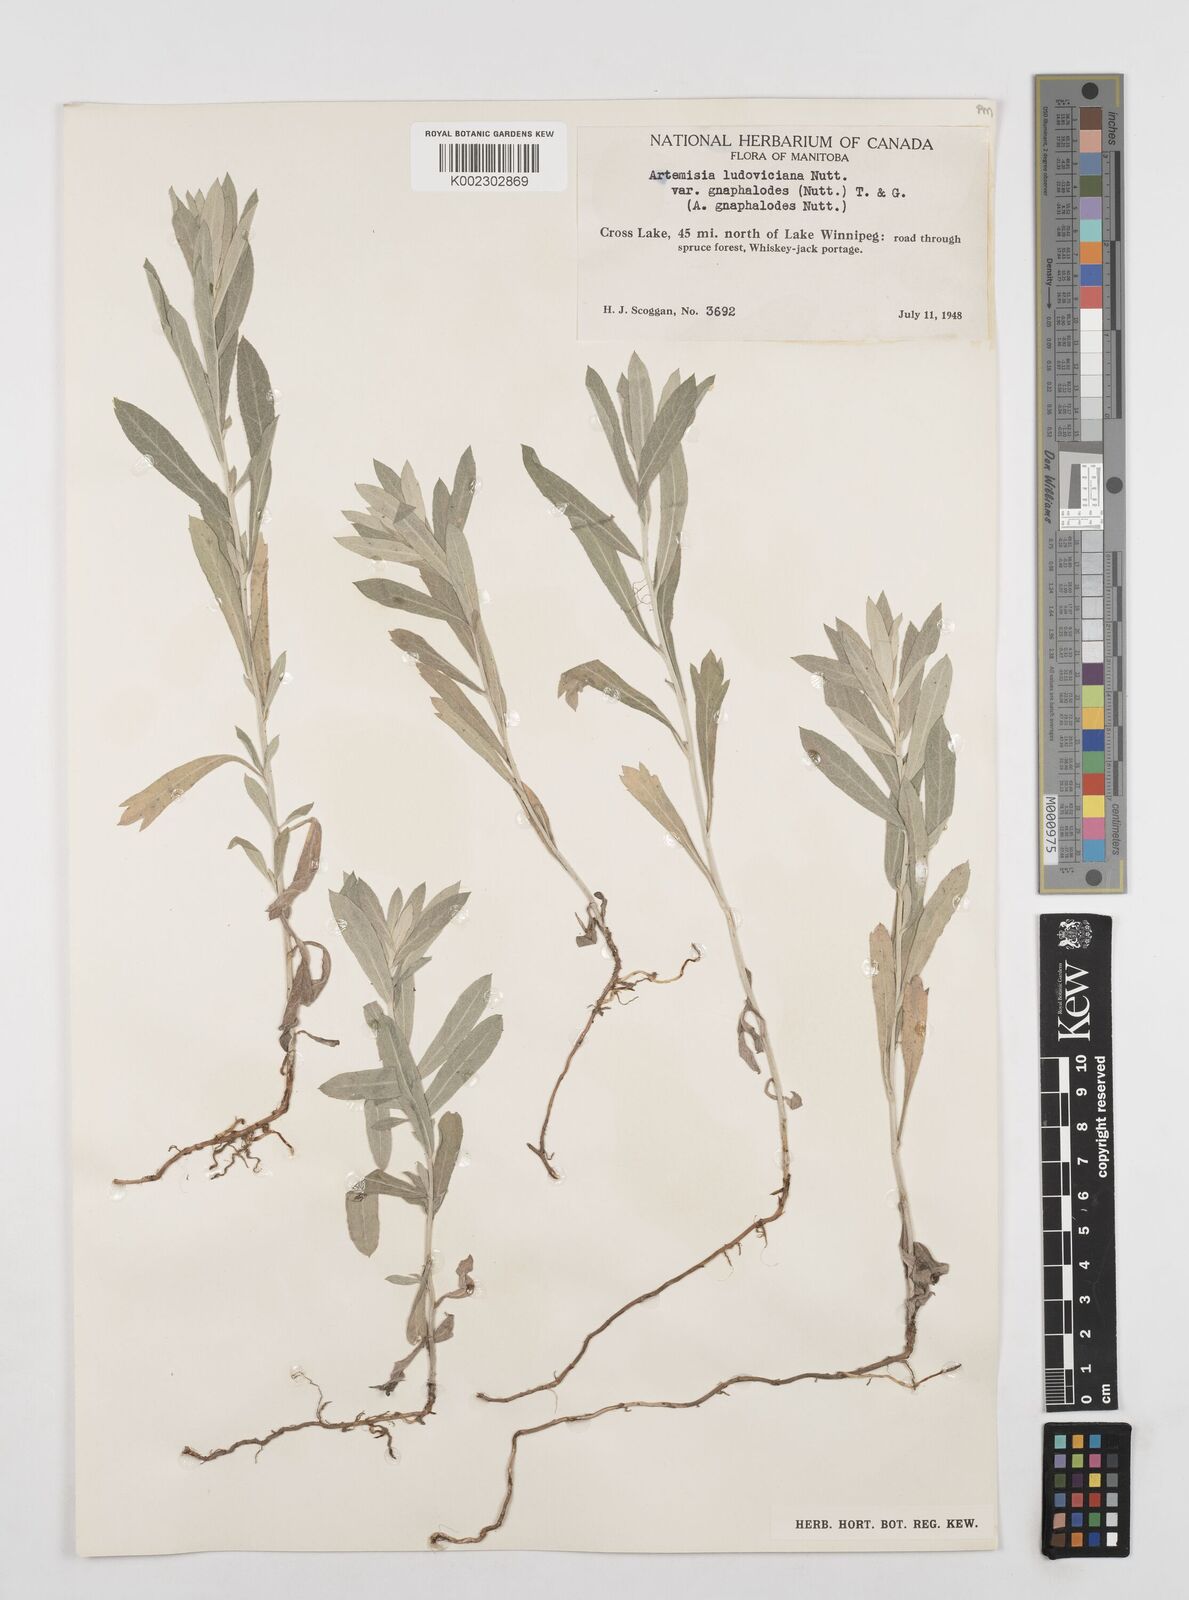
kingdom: Plantae
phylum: Tracheophyta
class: Magnoliopsida
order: Asterales
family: Asteraceae
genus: Artemisia
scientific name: Artemisia ludoviciana
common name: Western mugwort
